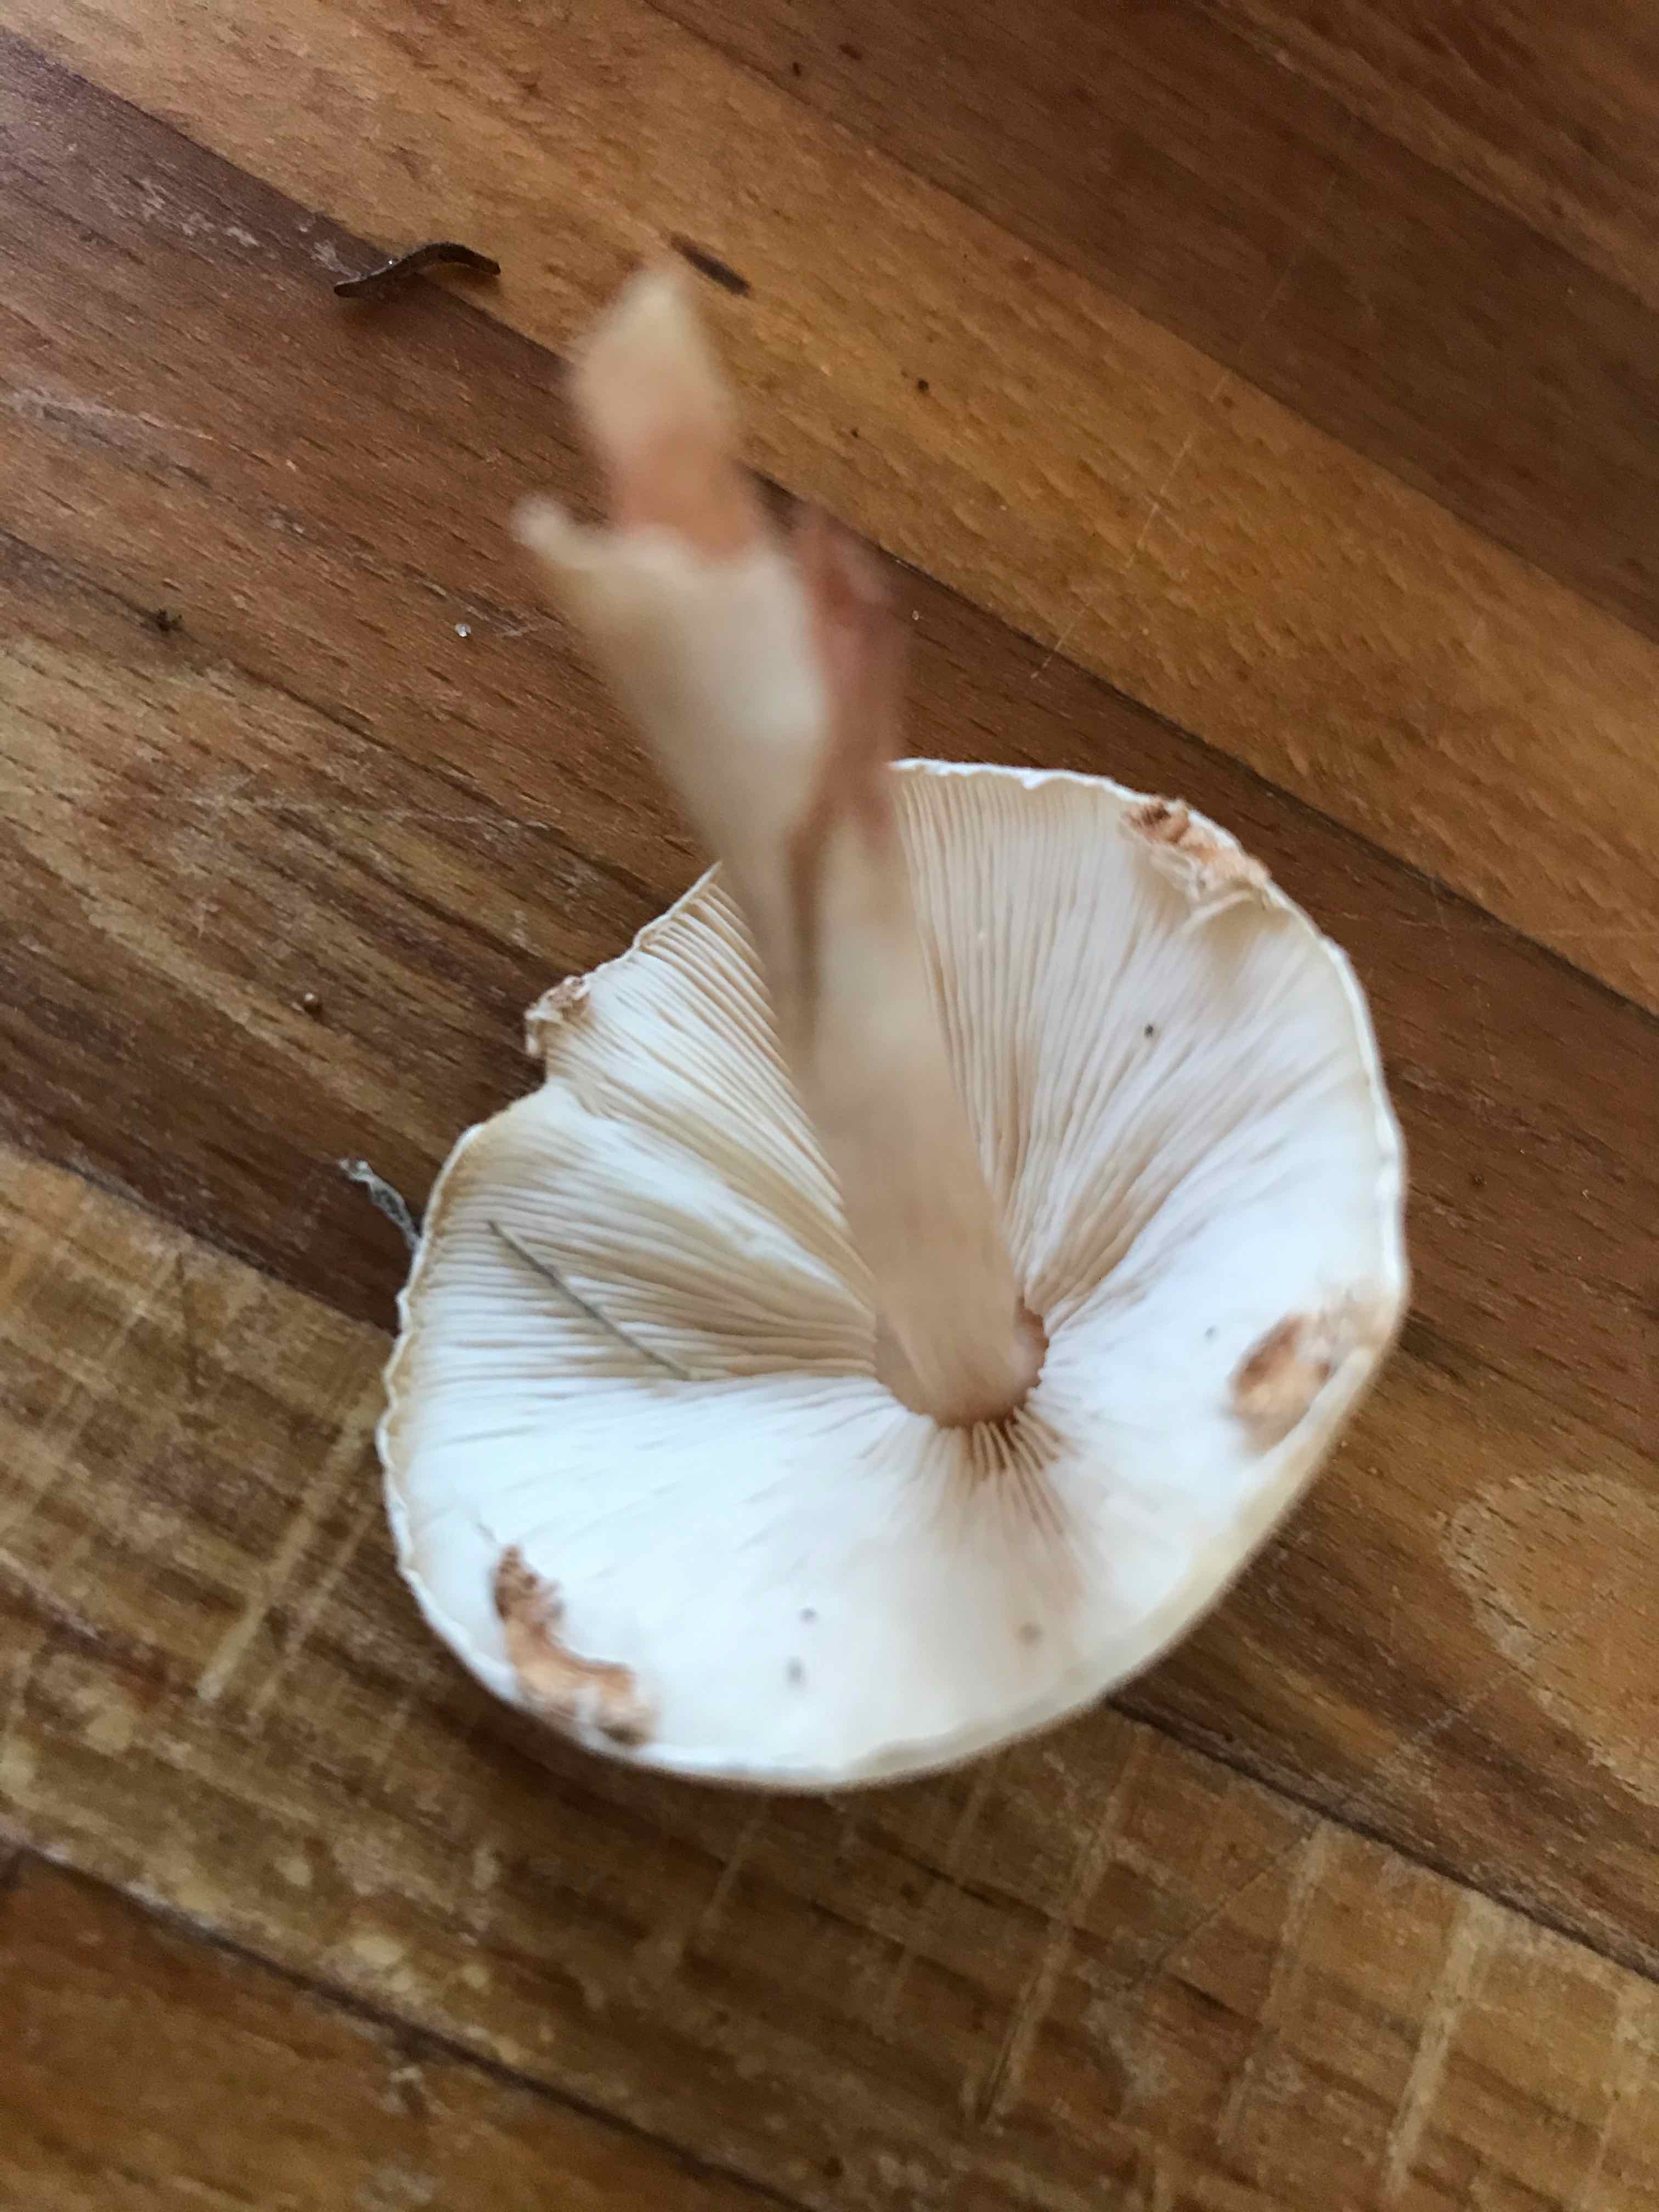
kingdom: Fungi
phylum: Basidiomycota
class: Agaricomycetes
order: Agaricales
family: Agaricaceae
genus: Lepiota
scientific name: Lepiota cristata
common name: stinkende parasolhat
